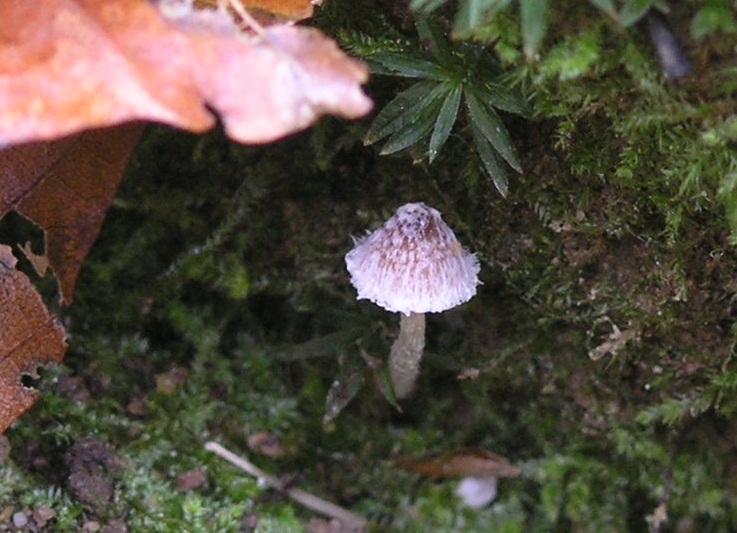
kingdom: Fungi
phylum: Basidiomycota
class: Agaricomycetes
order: Agaricales
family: Psathyrellaceae
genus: Psathyrella
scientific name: Psathyrella kitsiana
